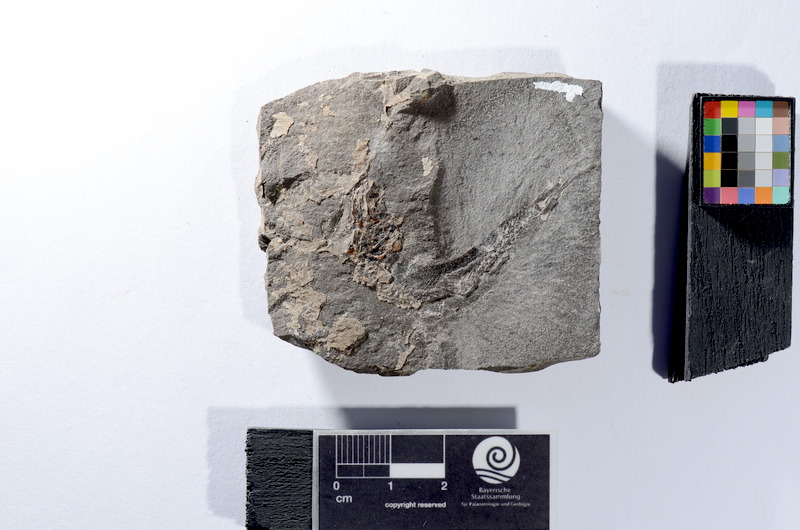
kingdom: Animalia
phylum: Chordata
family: Leptolepididae
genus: Leptolepis
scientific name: Leptolepis coryphaenoides
